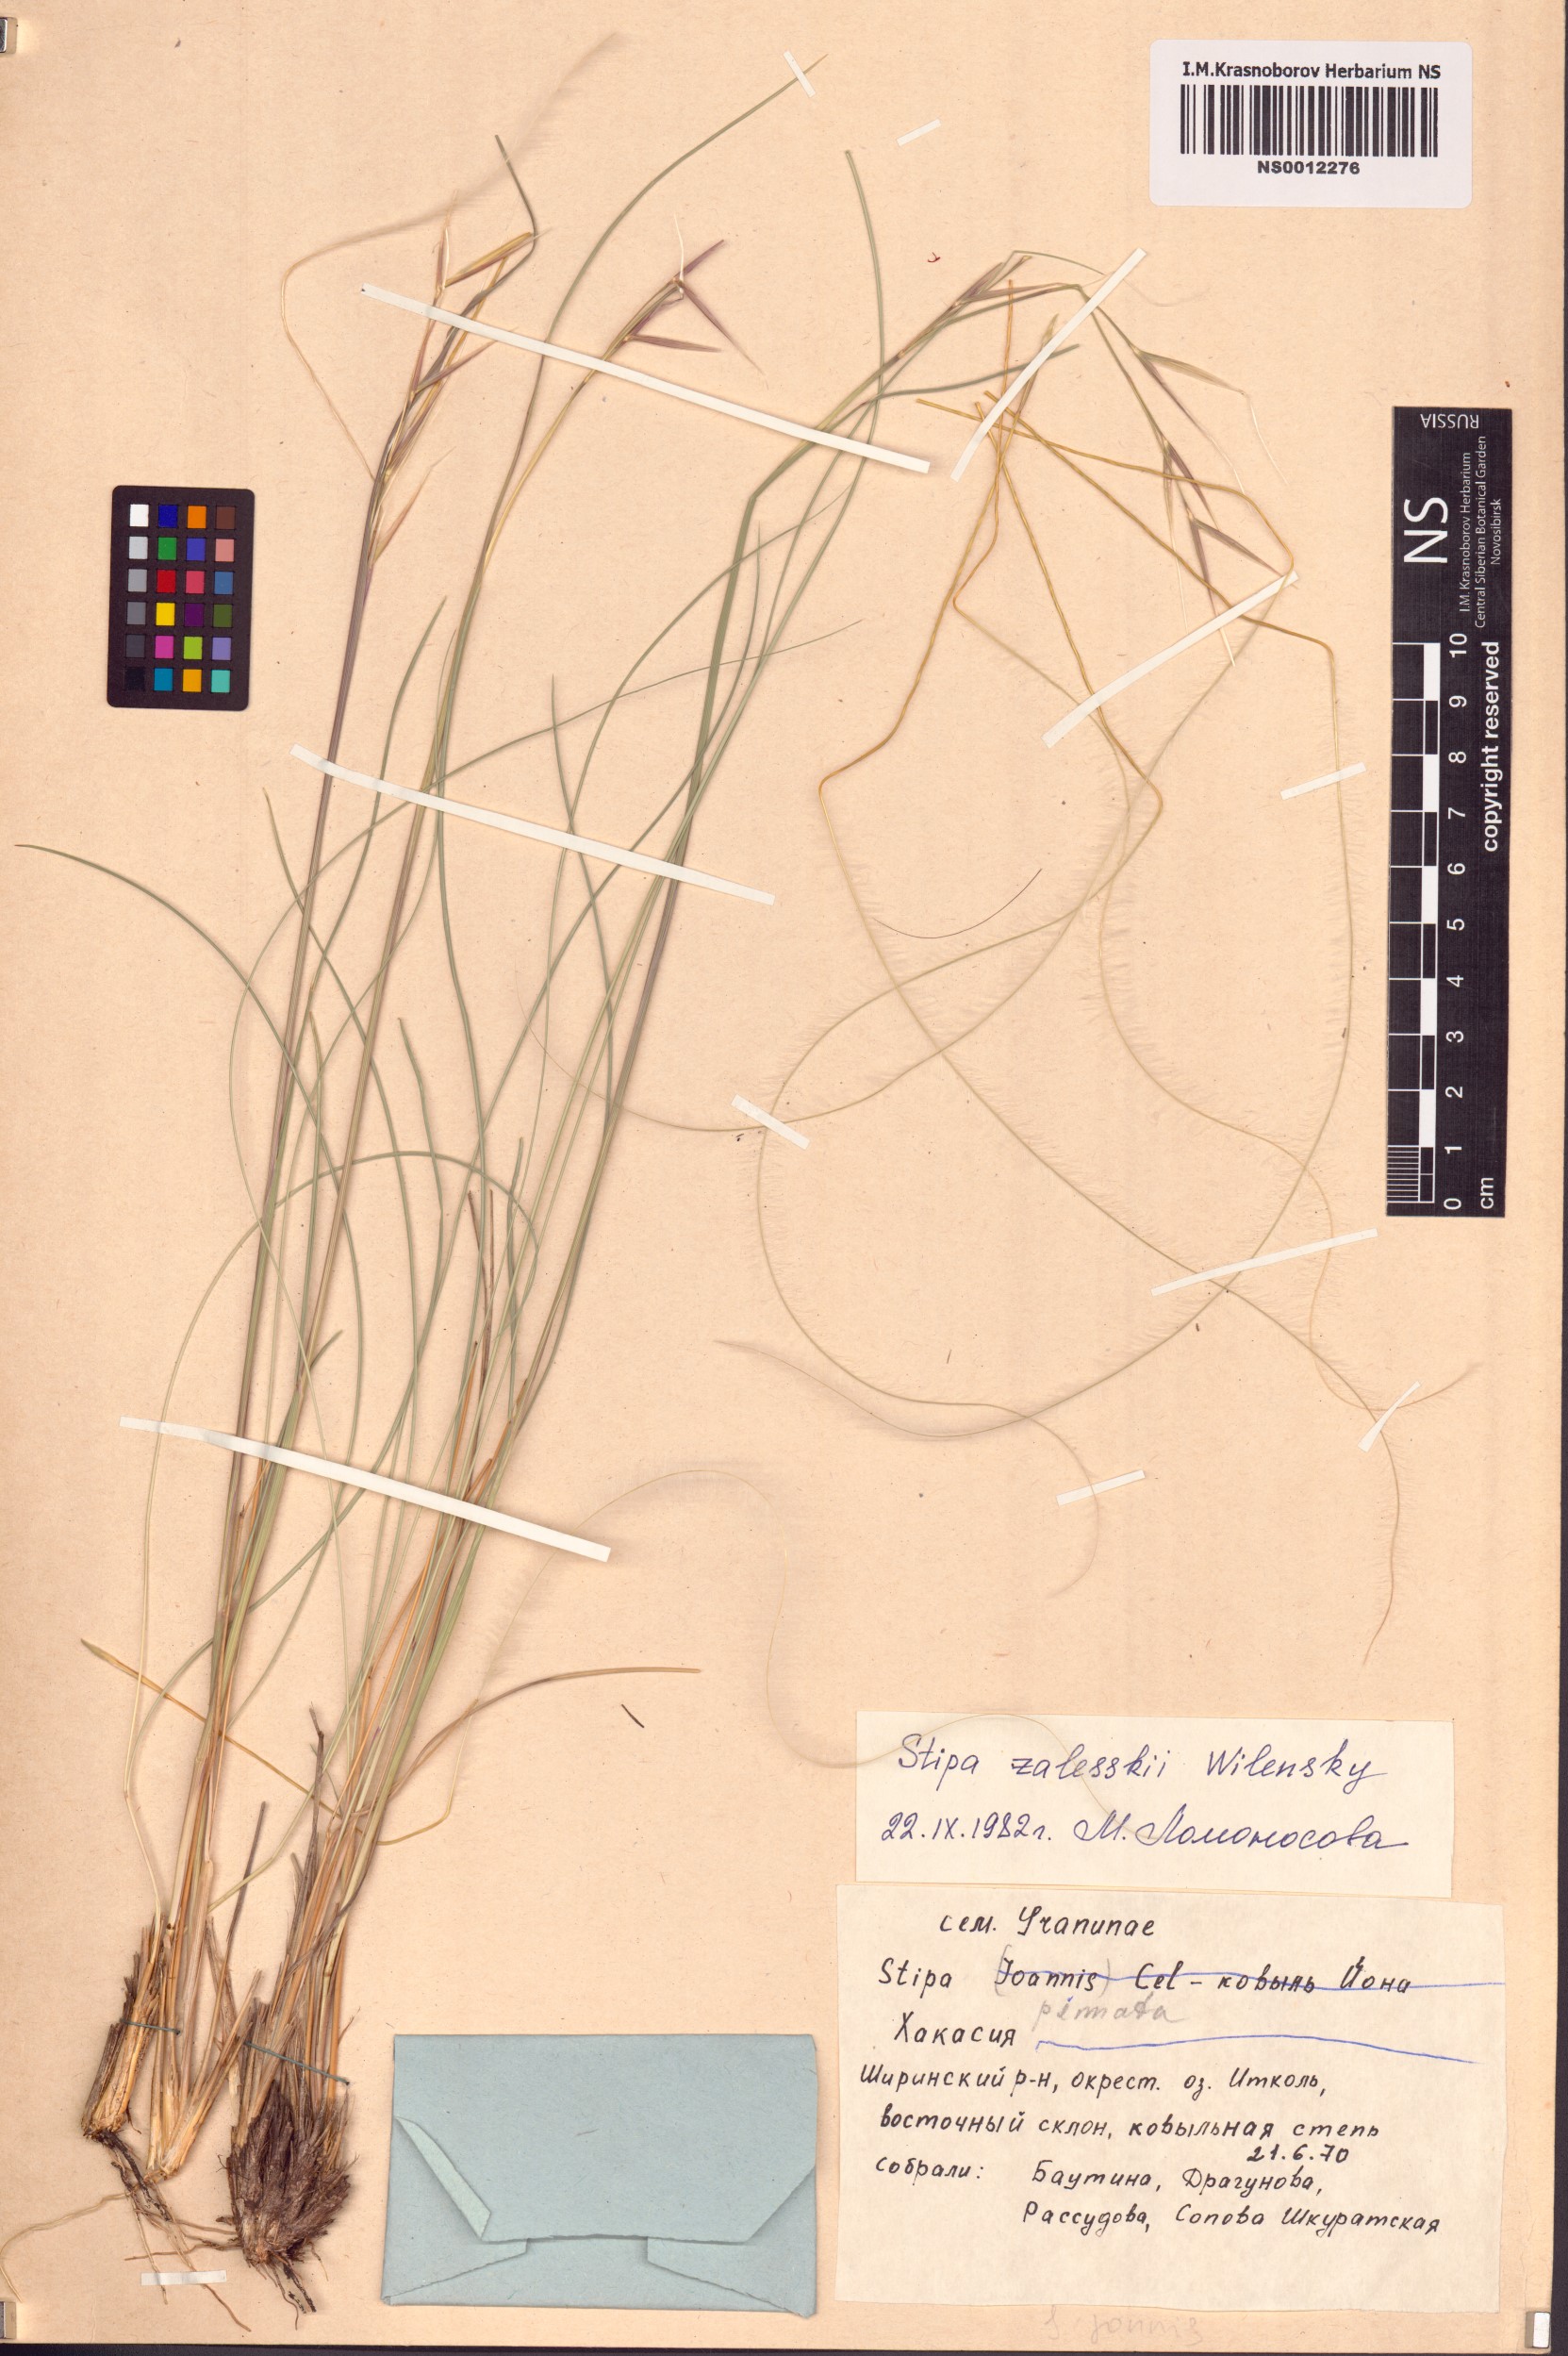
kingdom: Plantae
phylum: Tracheophyta
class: Liliopsida
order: Poales
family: Poaceae
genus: Stipa
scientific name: Stipa zalesskii
